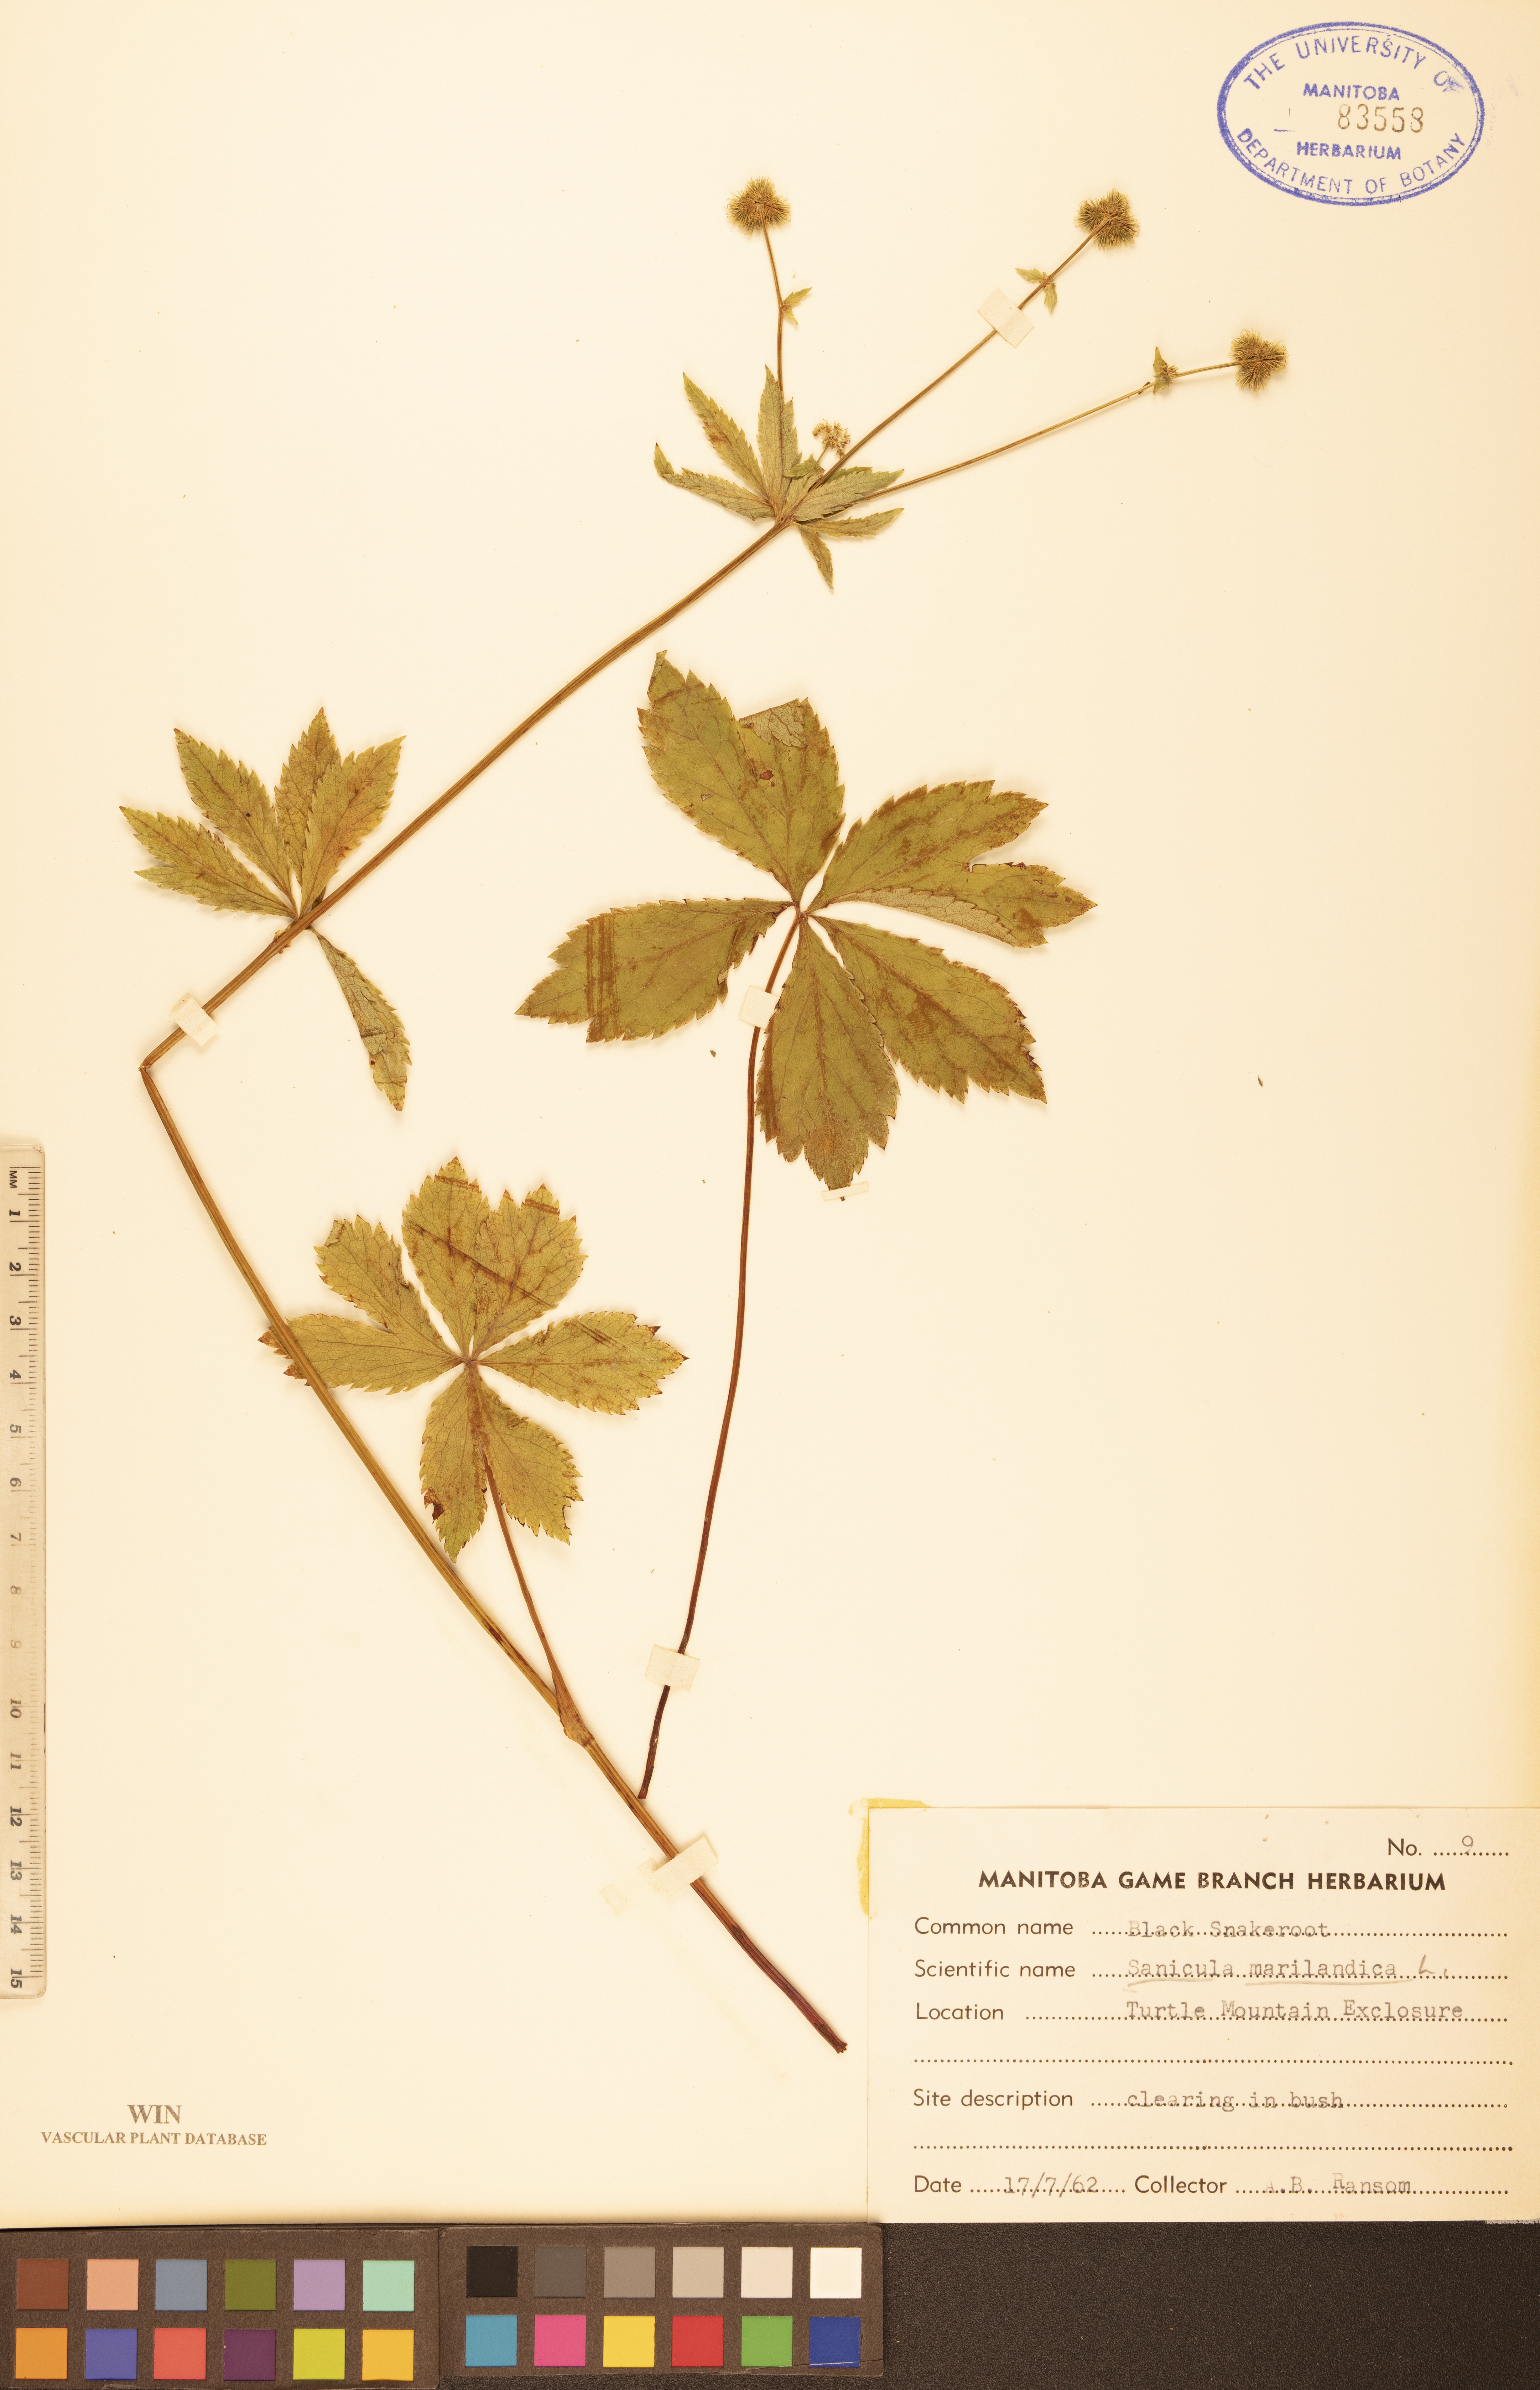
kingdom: Plantae
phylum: Tracheophyta
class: Magnoliopsida
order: Apiales
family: Apiaceae
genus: Sanicula
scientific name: Sanicula marilandica
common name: Black snakeroot
